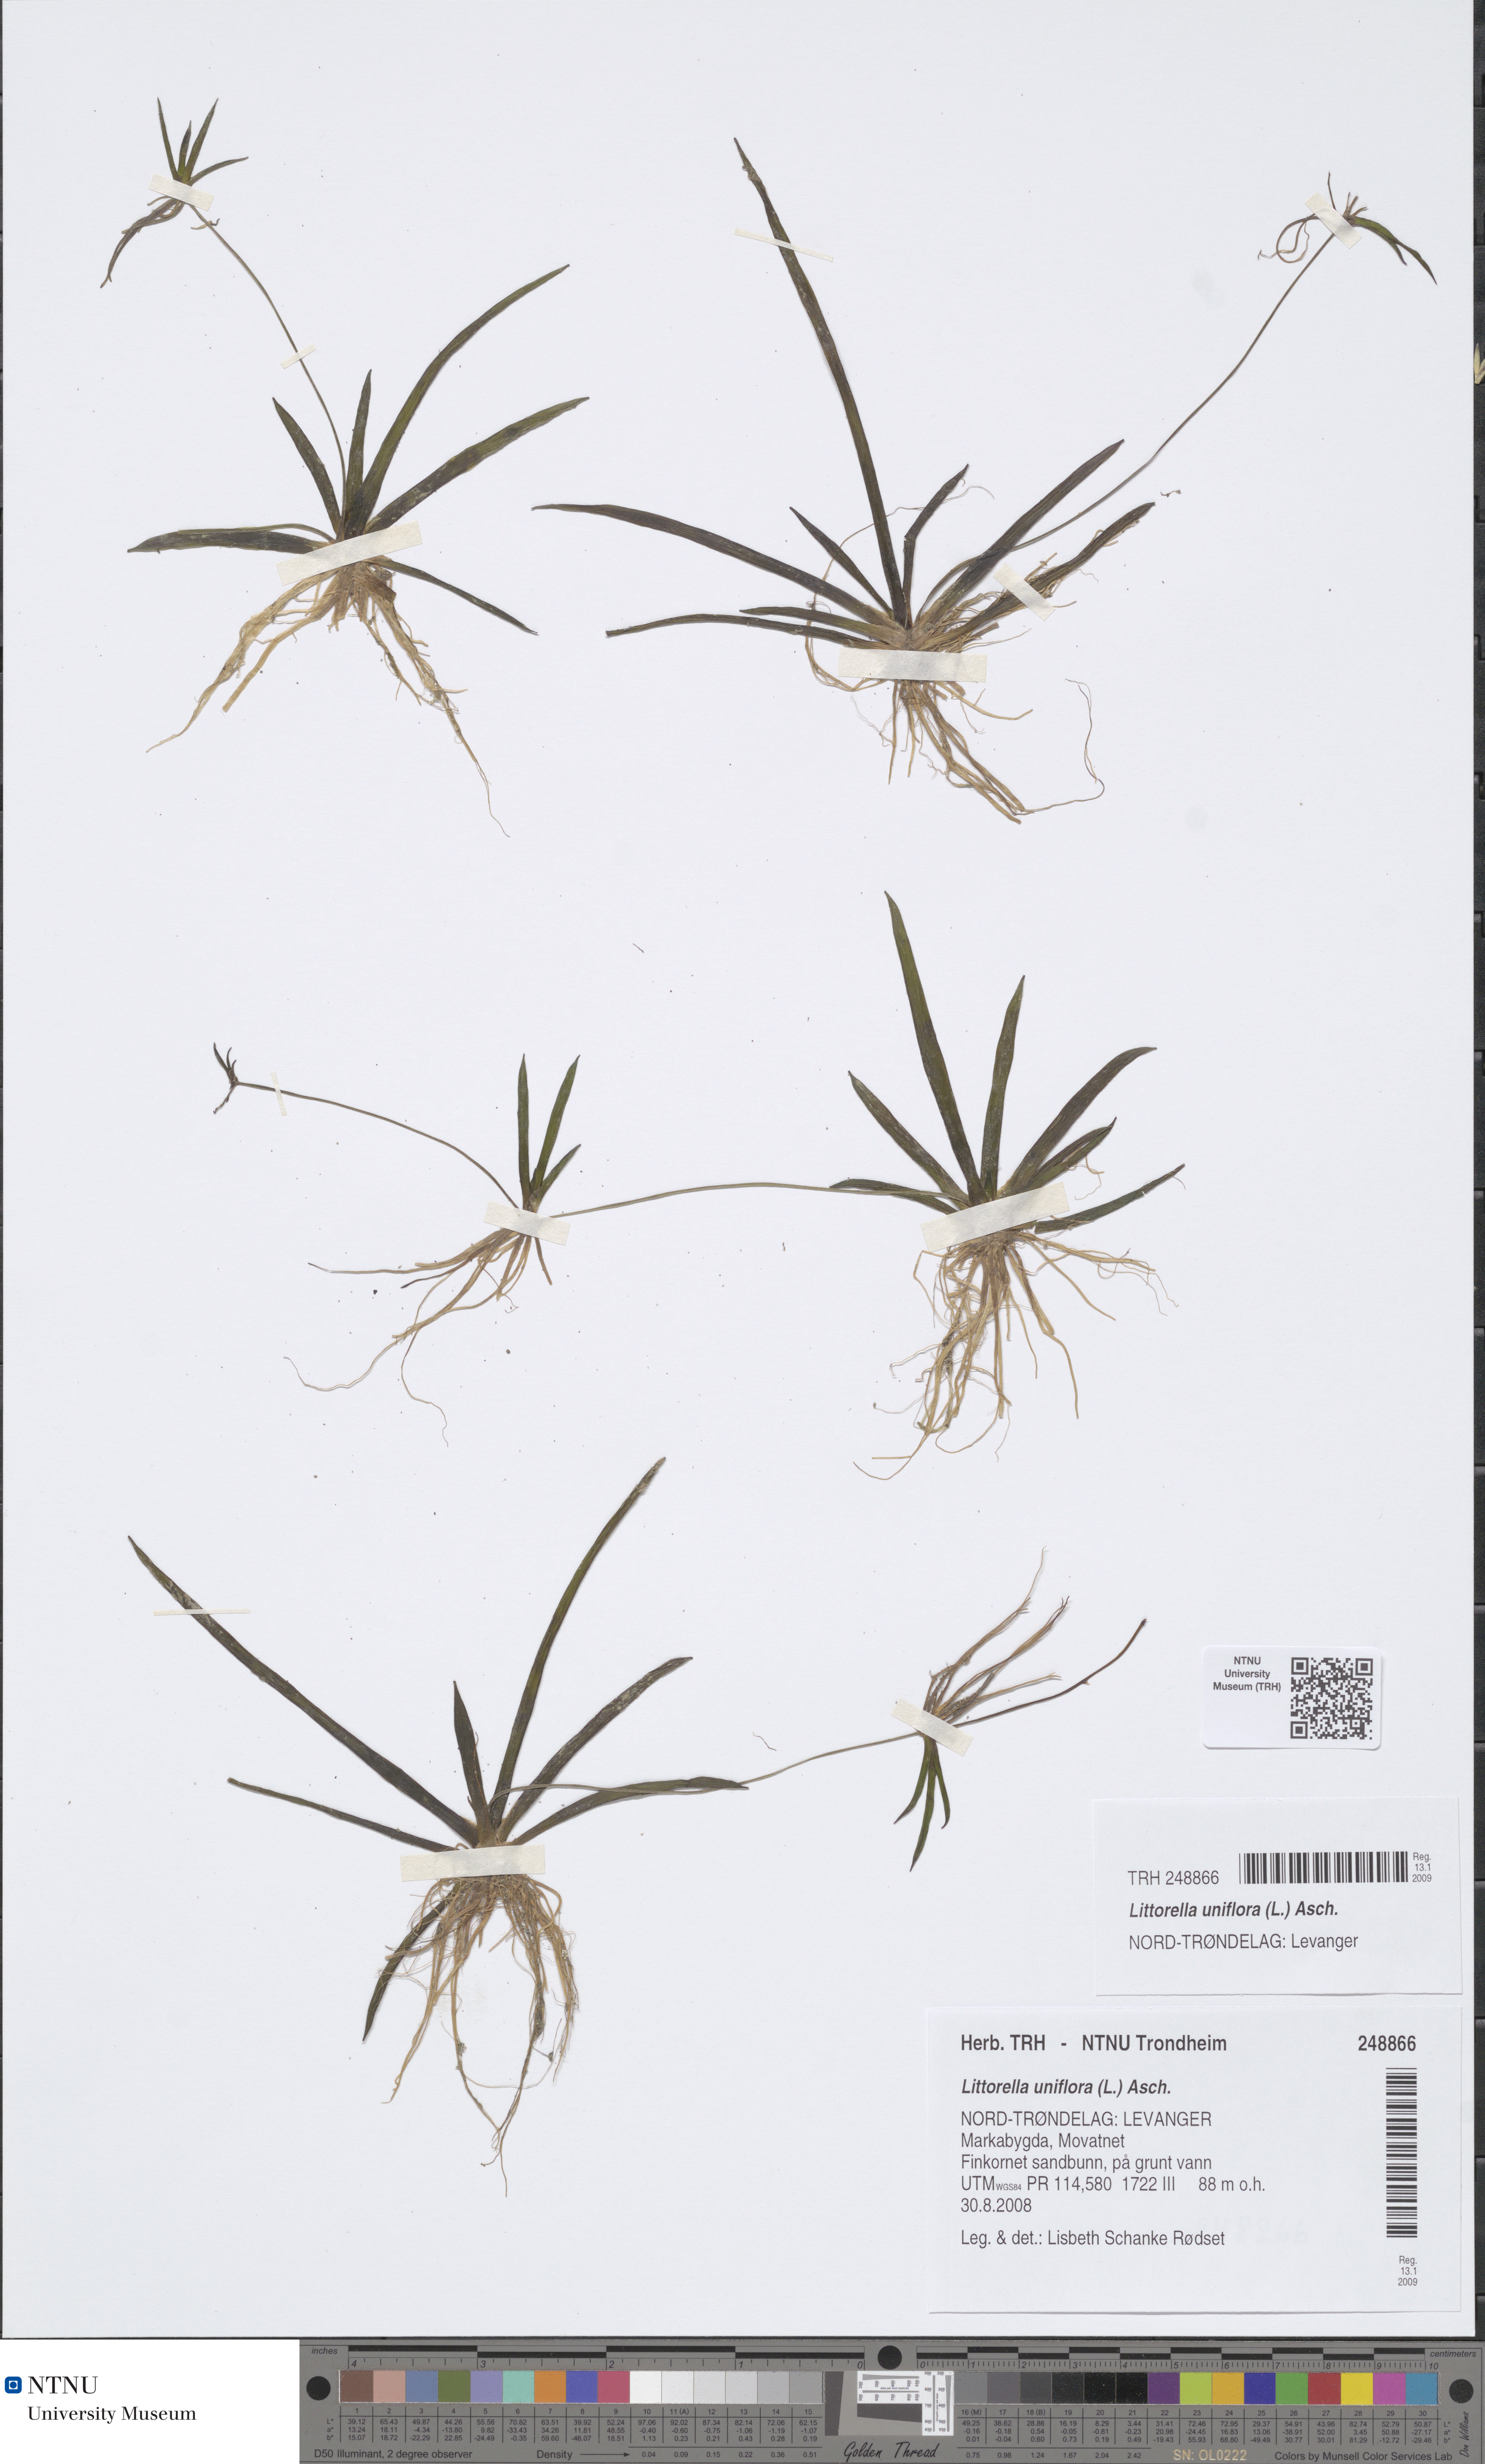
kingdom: Plantae
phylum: Tracheophyta
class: Magnoliopsida
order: Lamiales
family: Plantaginaceae
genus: Littorella
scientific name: Littorella uniflora
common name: Shoreweed
